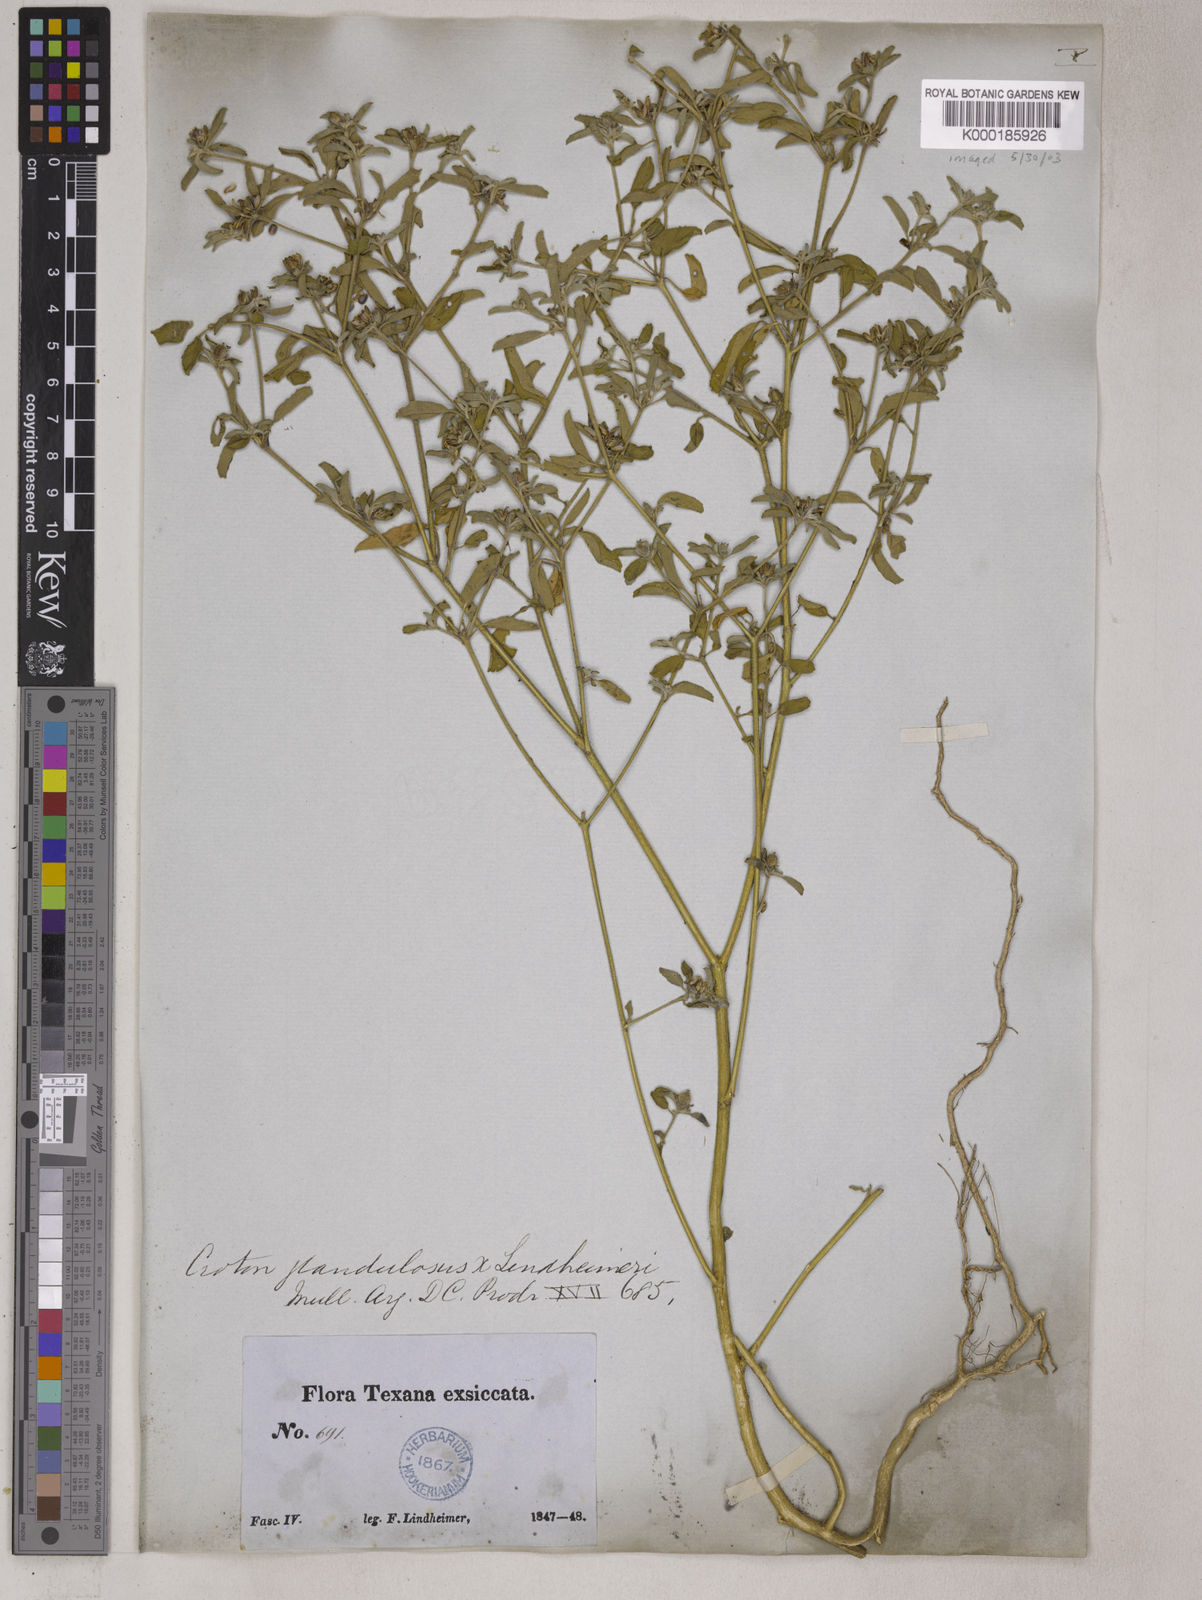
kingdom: Plantae
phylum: Tracheophyta
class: Magnoliopsida
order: Malpighiales
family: Euphorbiaceae
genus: Croton
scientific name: Croton glandulosus
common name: Tropic croton
